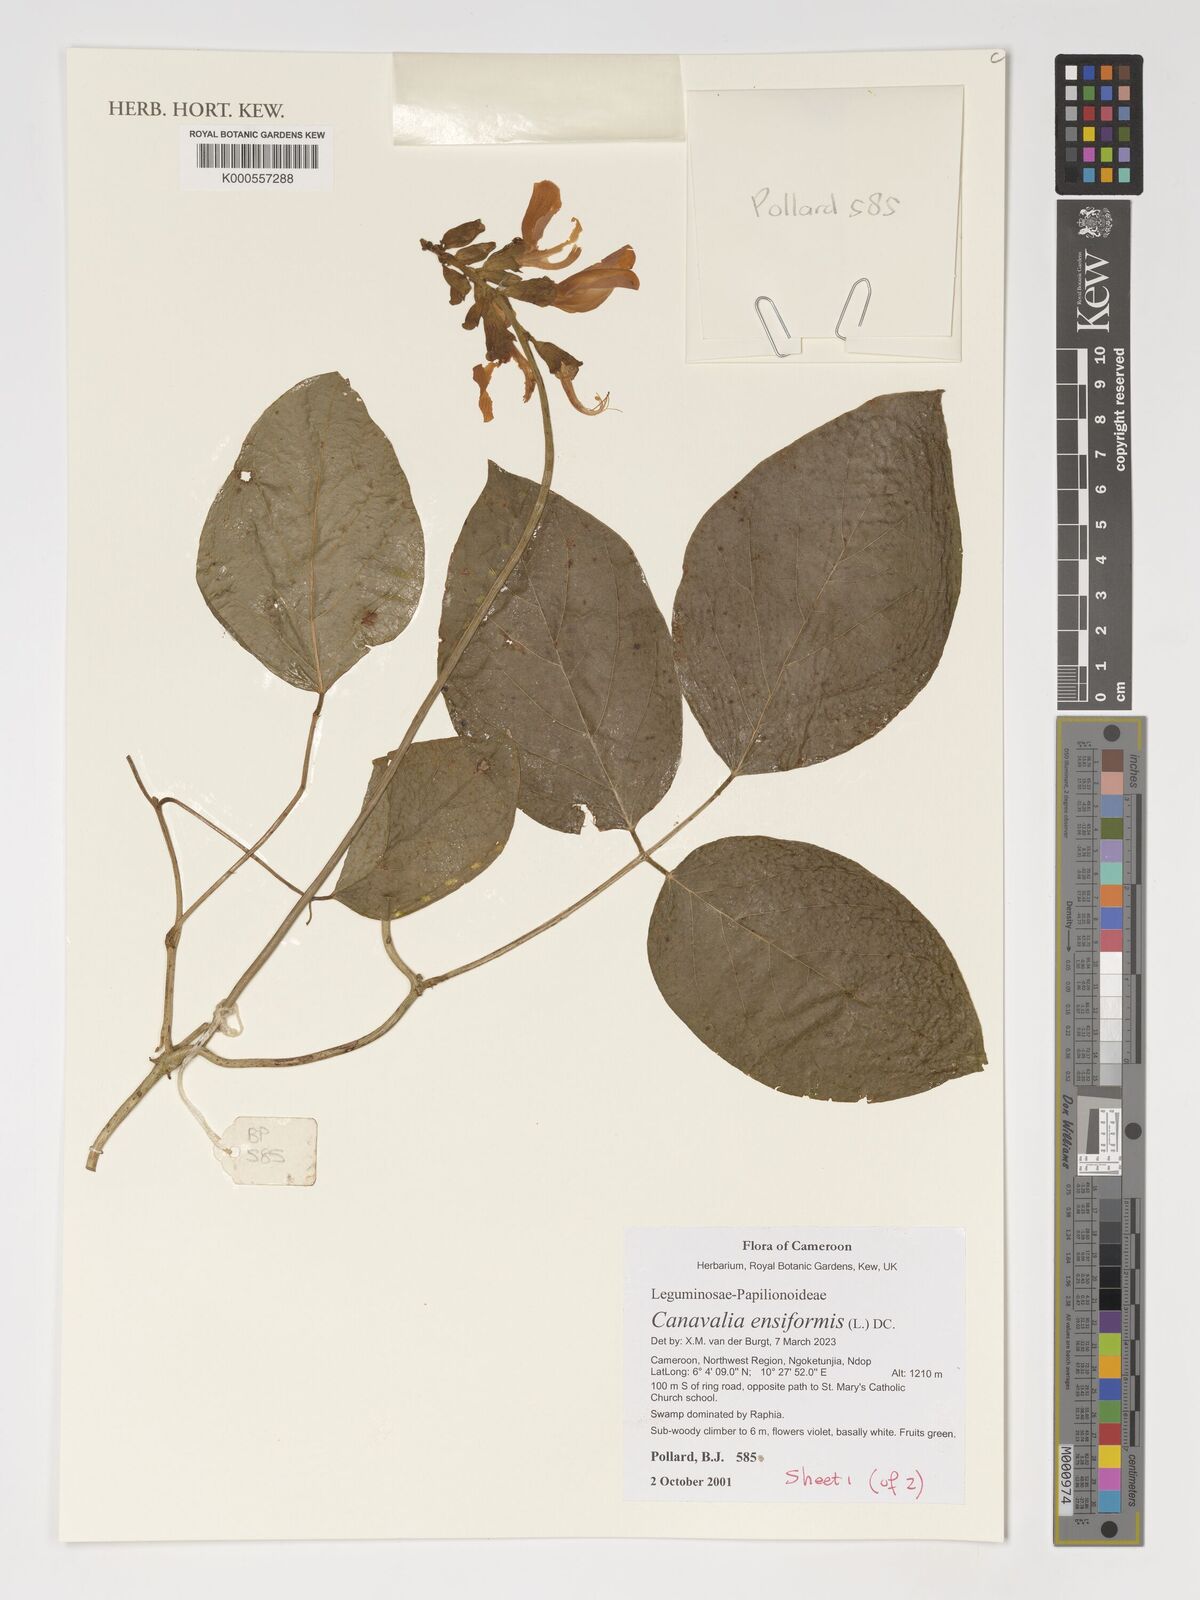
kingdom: Plantae
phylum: Tracheophyta
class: Magnoliopsida
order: Fabales
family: Fabaceae
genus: Canavalia
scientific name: Canavalia ensiformis
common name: Jack bean
